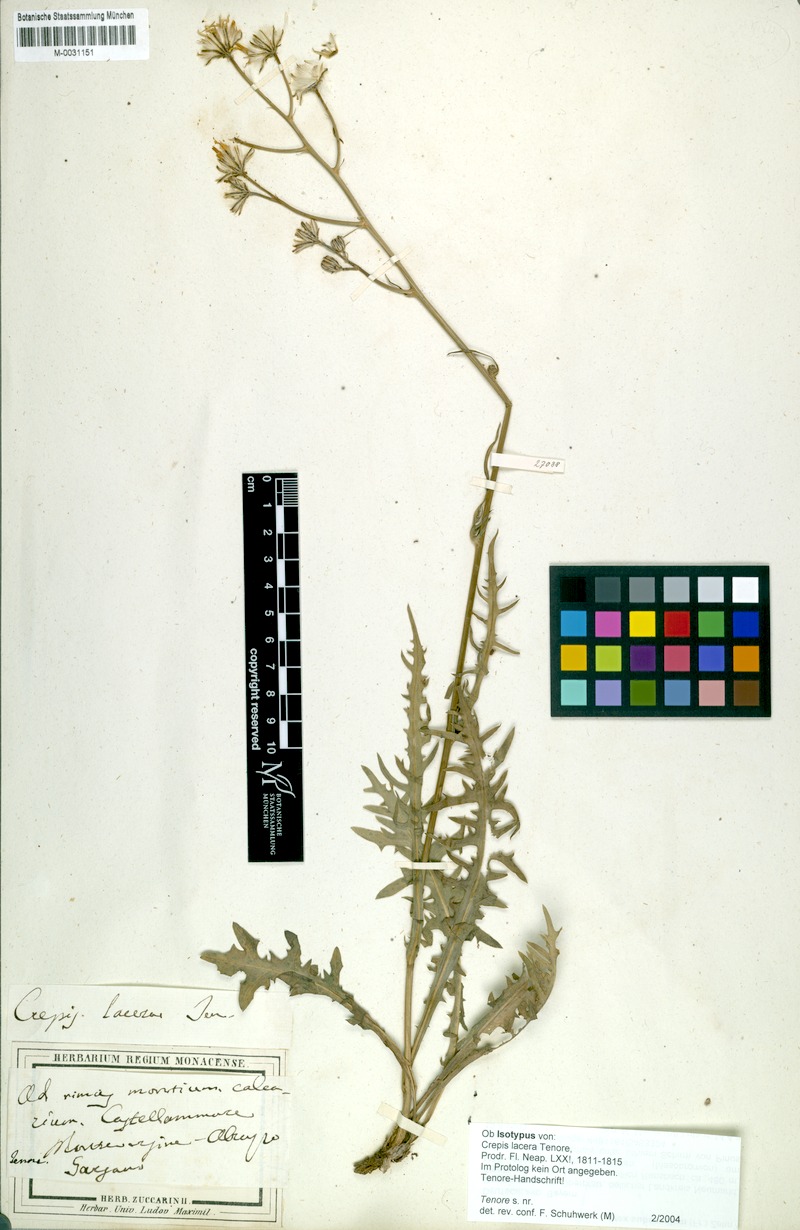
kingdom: Plantae
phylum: Tracheophyta
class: Magnoliopsida
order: Asterales
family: Asteraceae
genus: Crepis
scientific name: Crepis lacera
